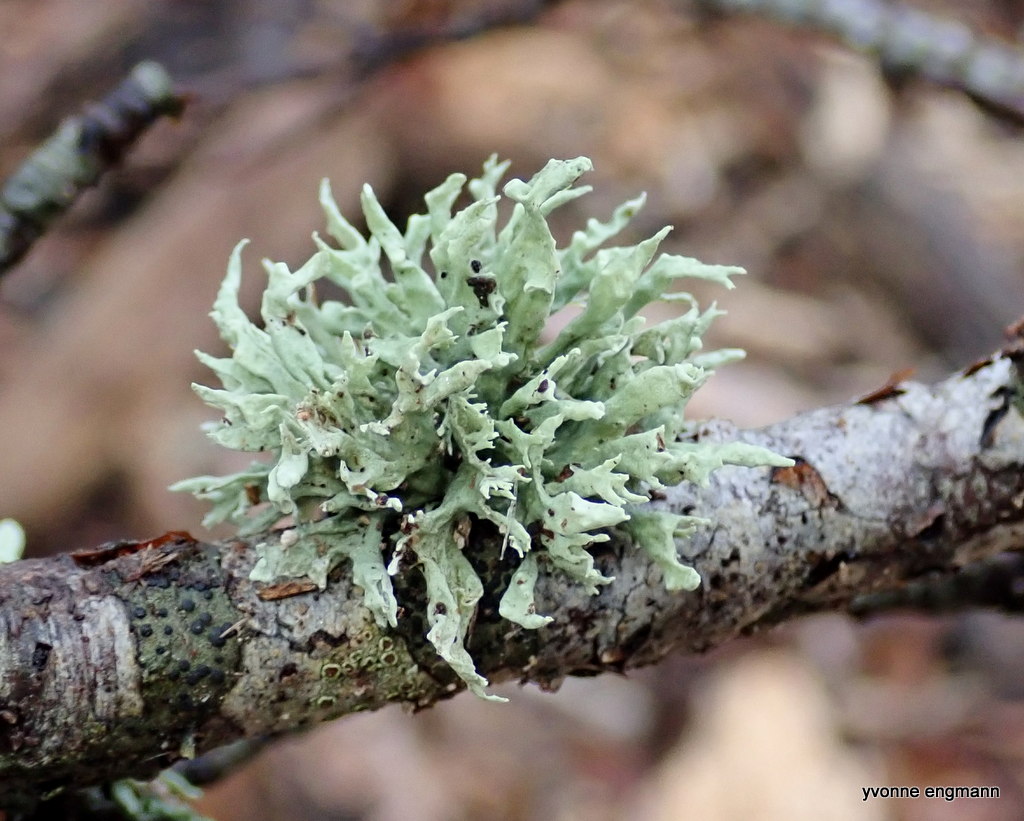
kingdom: Fungi
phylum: Ascomycota
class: Lecanoromycetes
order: Lecanorales
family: Parmeliaceae
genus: Evernia
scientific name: Evernia prunastri
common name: almindelig slåenlav
